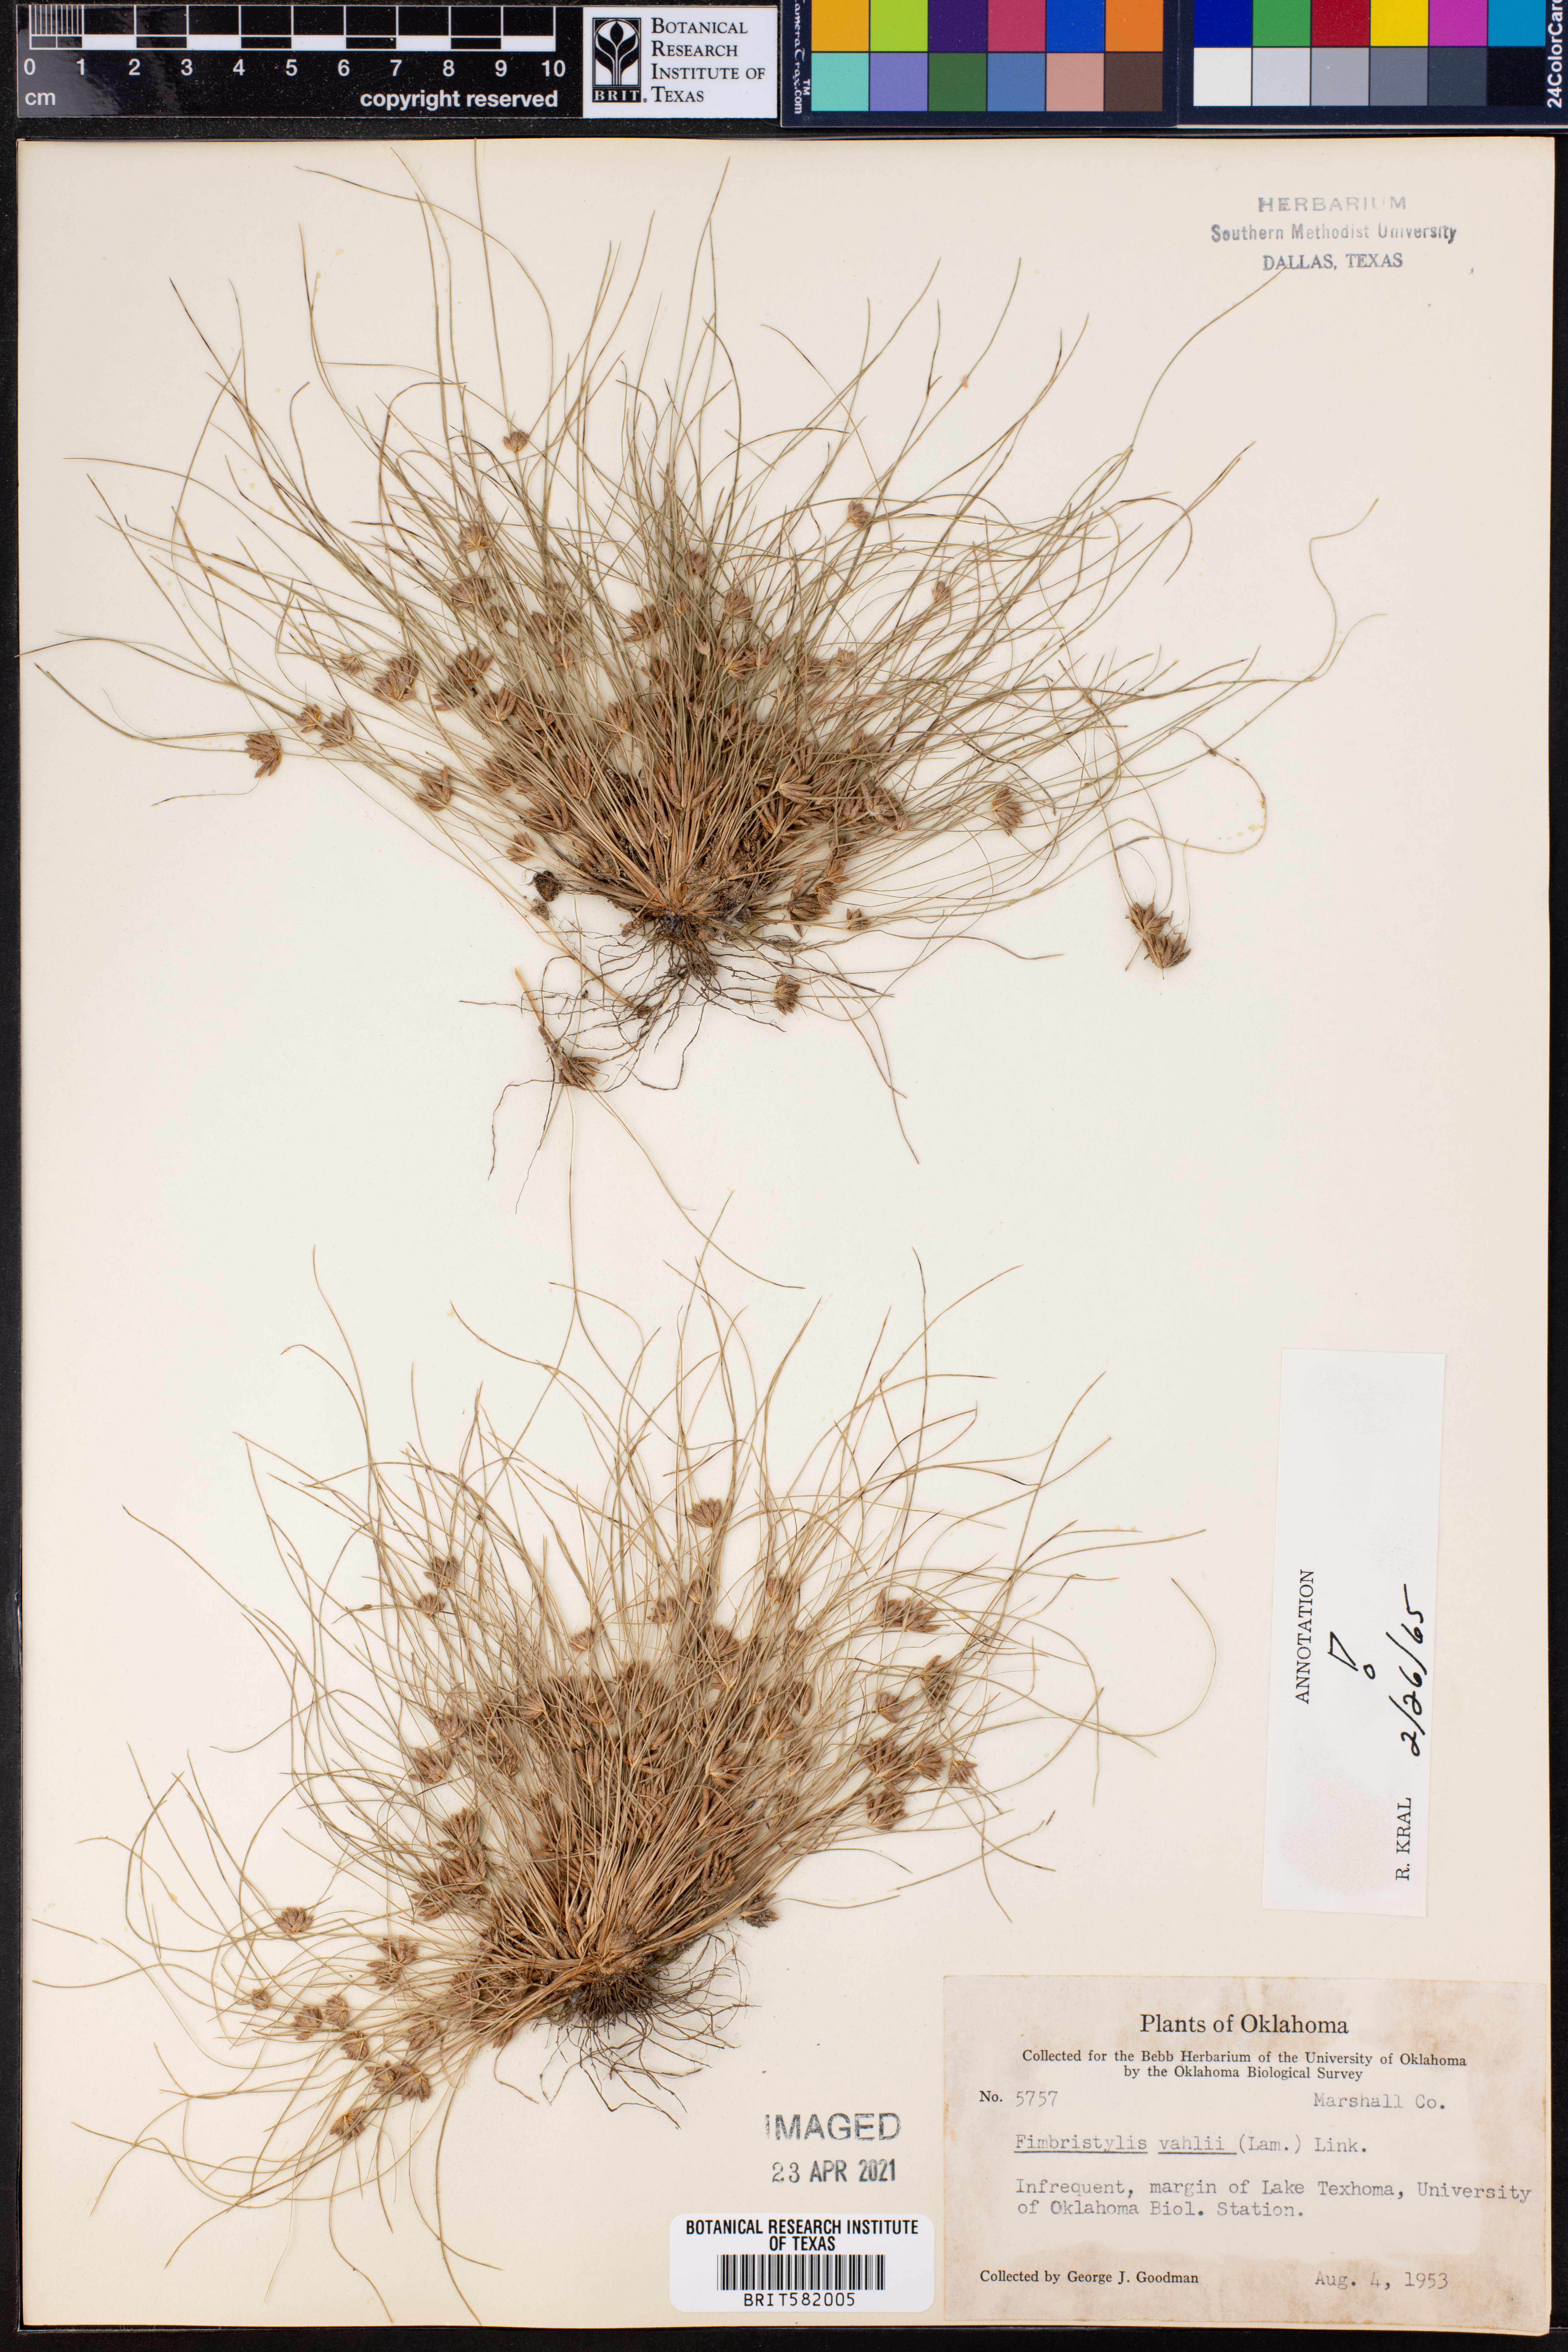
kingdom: Plantae
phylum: Tracheophyta
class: Liliopsida
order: Poales
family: Cyperaceae
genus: Fimbristylis
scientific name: Fimbristylis vahlii
